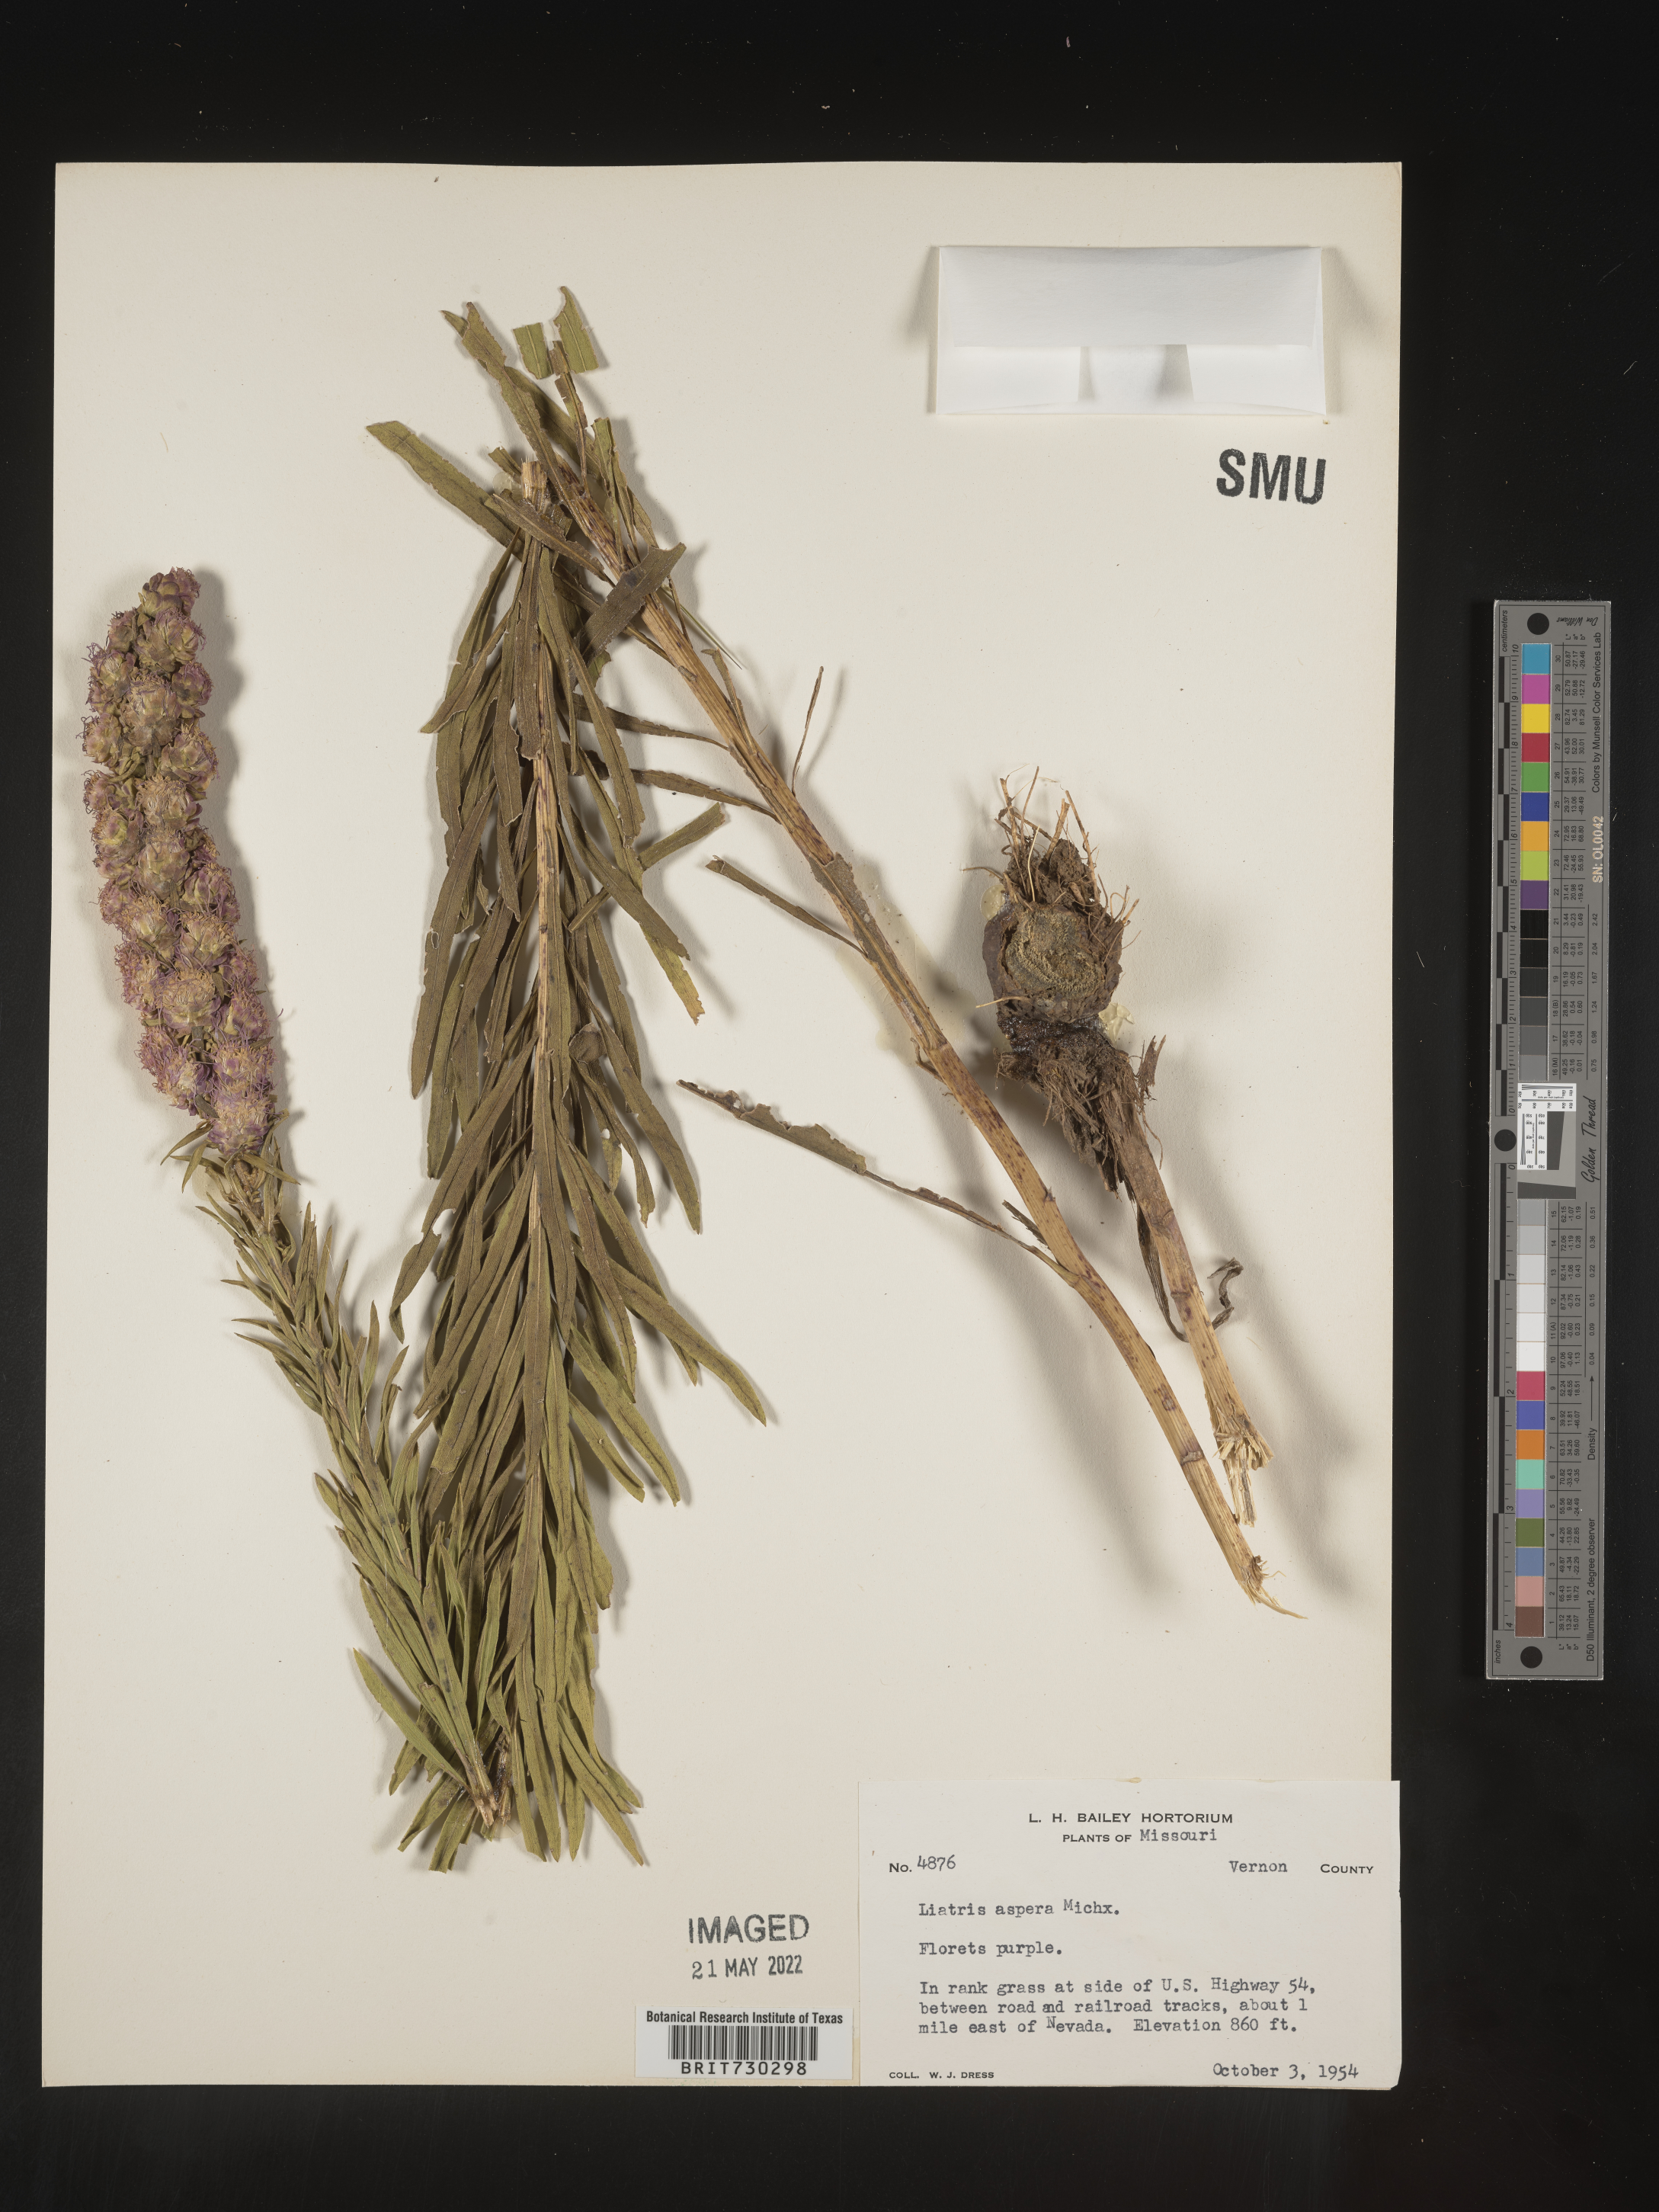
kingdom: Plantae
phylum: Tracheophyta
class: Magnoliopsida
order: Asterales
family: Asteraceae
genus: Liatris
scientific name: Liatris aspera
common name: Lacerate blazing-star
